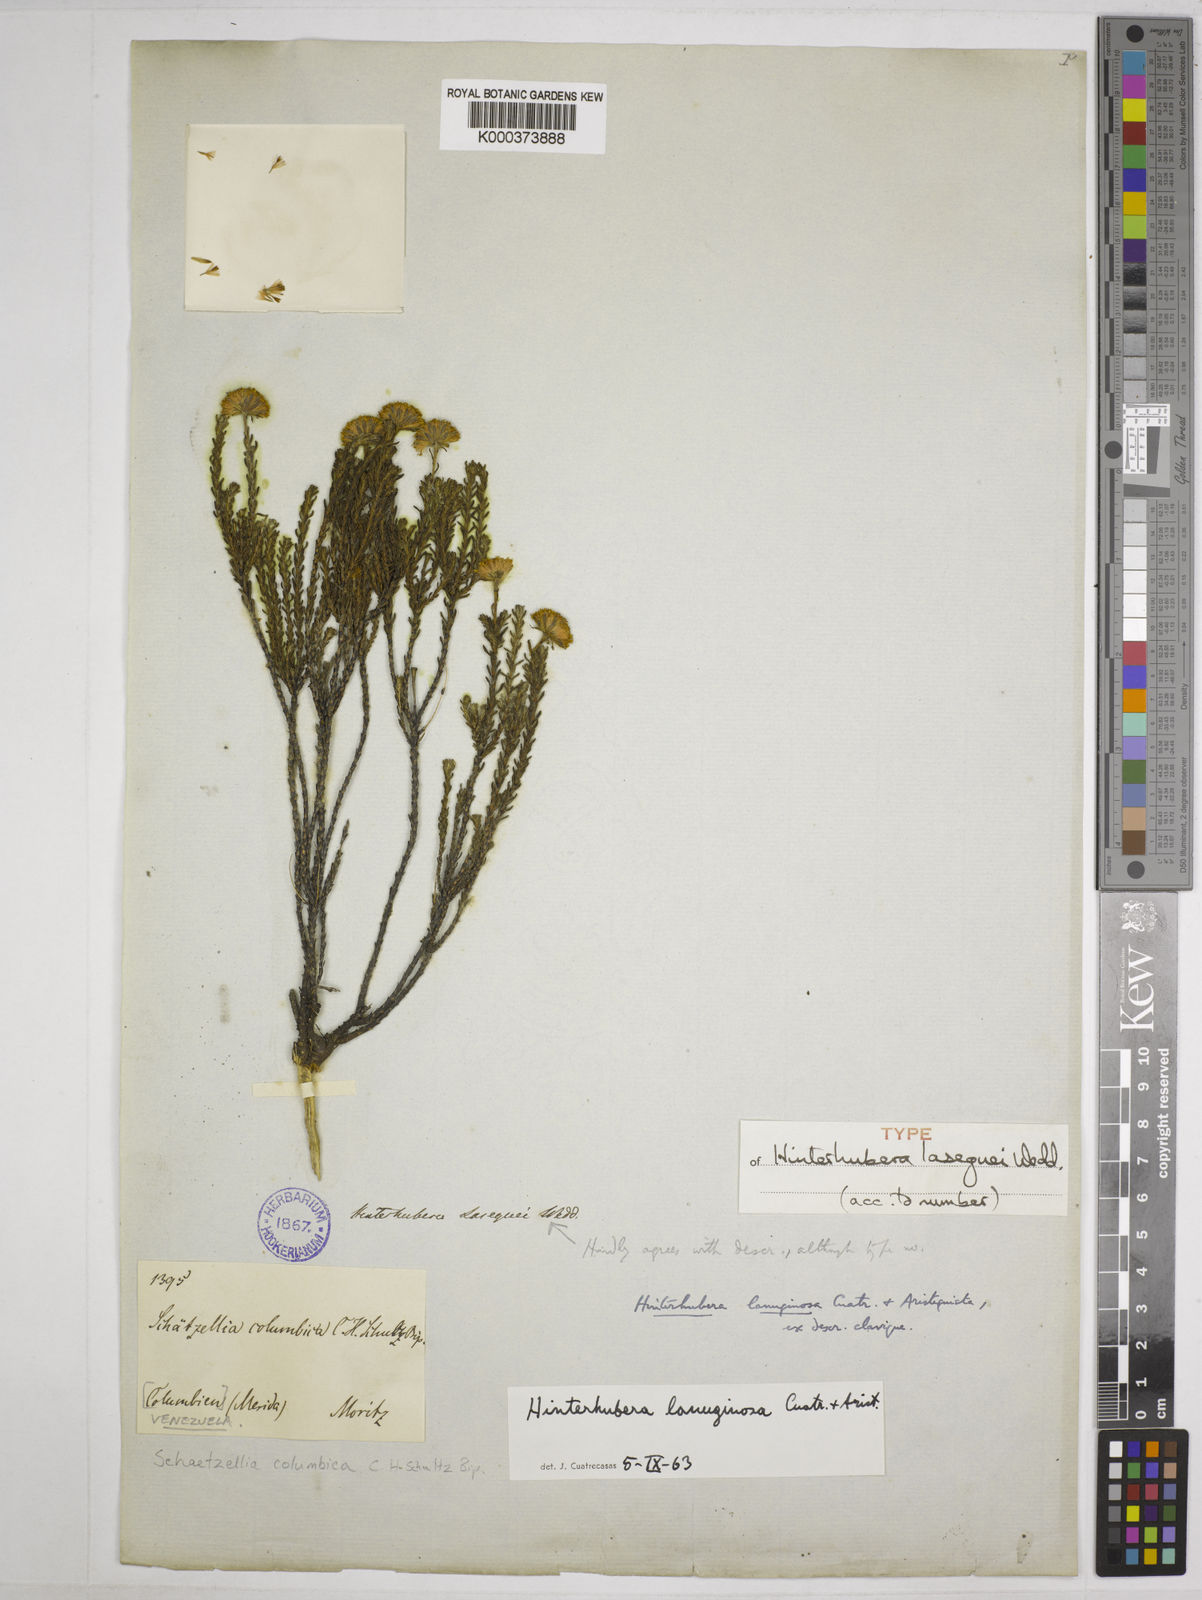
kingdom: Plantae
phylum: Tracheophyta
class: Magnoliopsida
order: Asterales
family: Asteraceae
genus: Hinterhubera
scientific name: Hinterhubera lanuginosa
